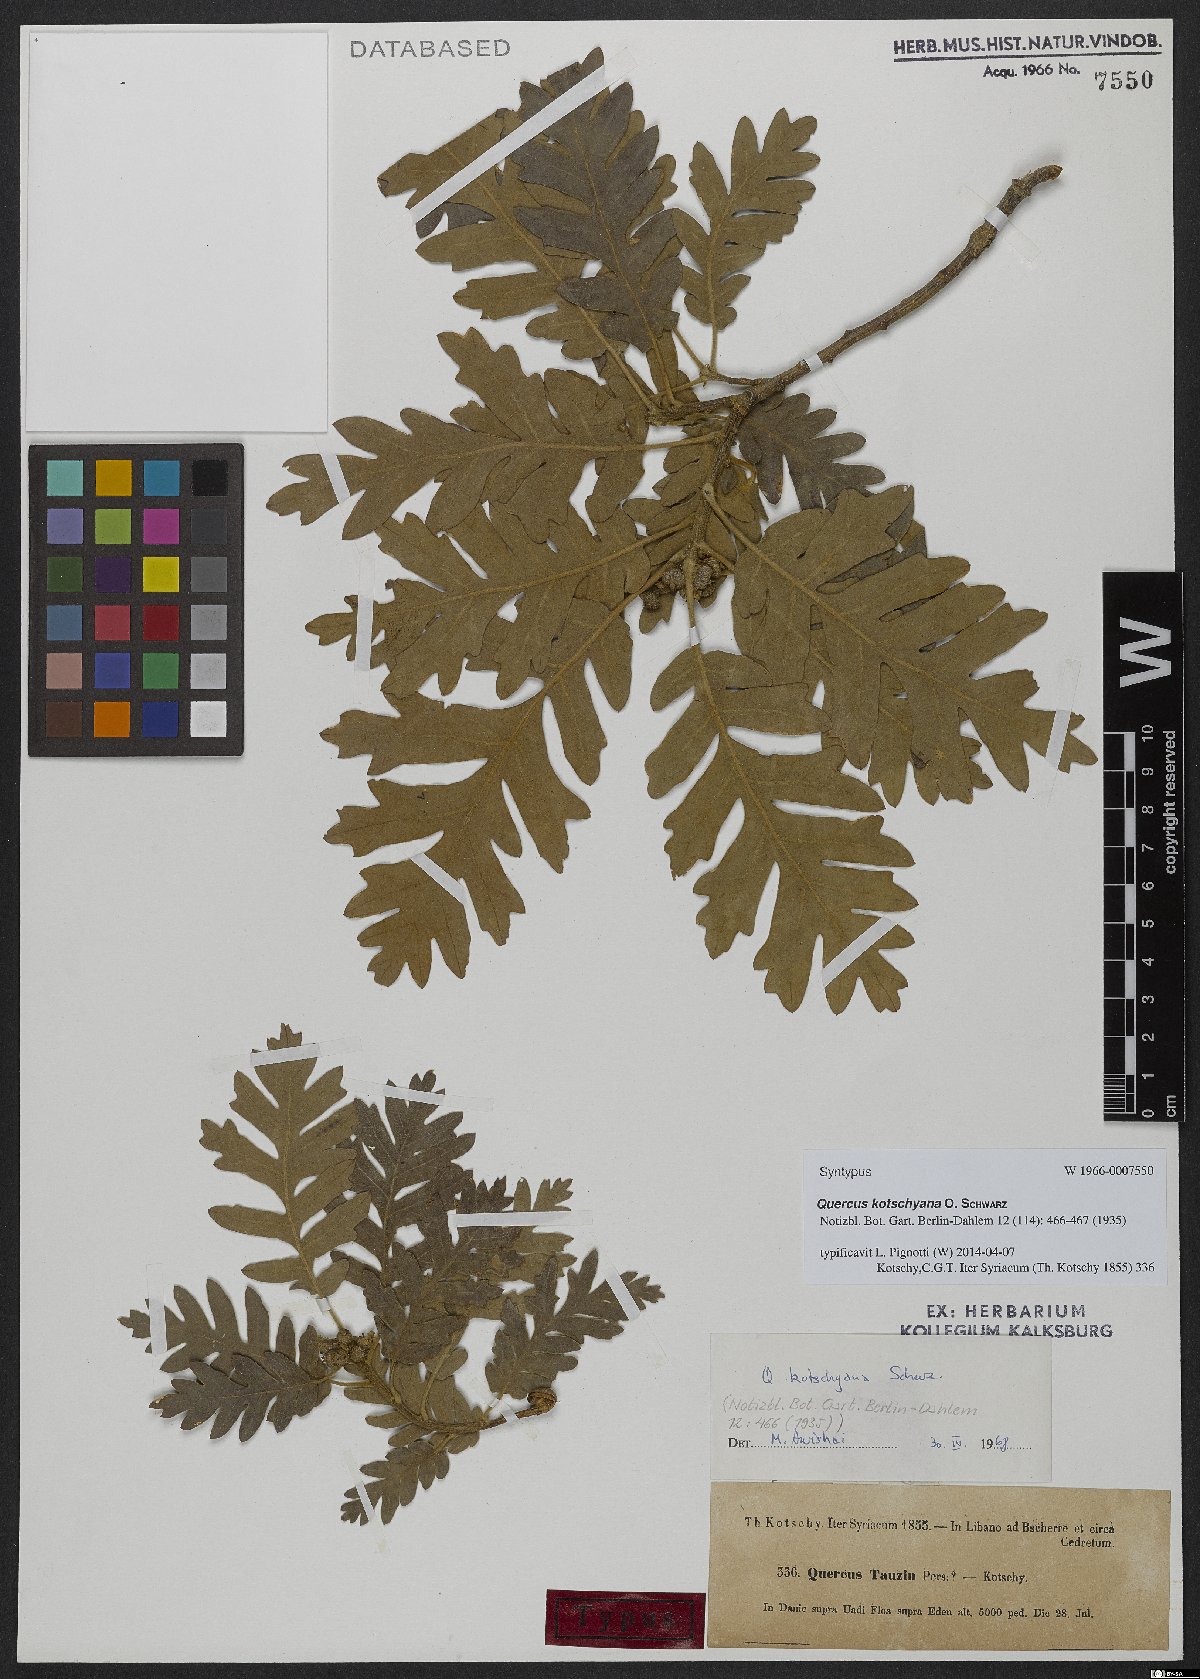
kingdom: Plantae
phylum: Tracheophyta
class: Magnoliopsida
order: Fagales
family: Fagaceae
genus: Quercus
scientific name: Quercus kotschyana
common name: Kotschy oak
